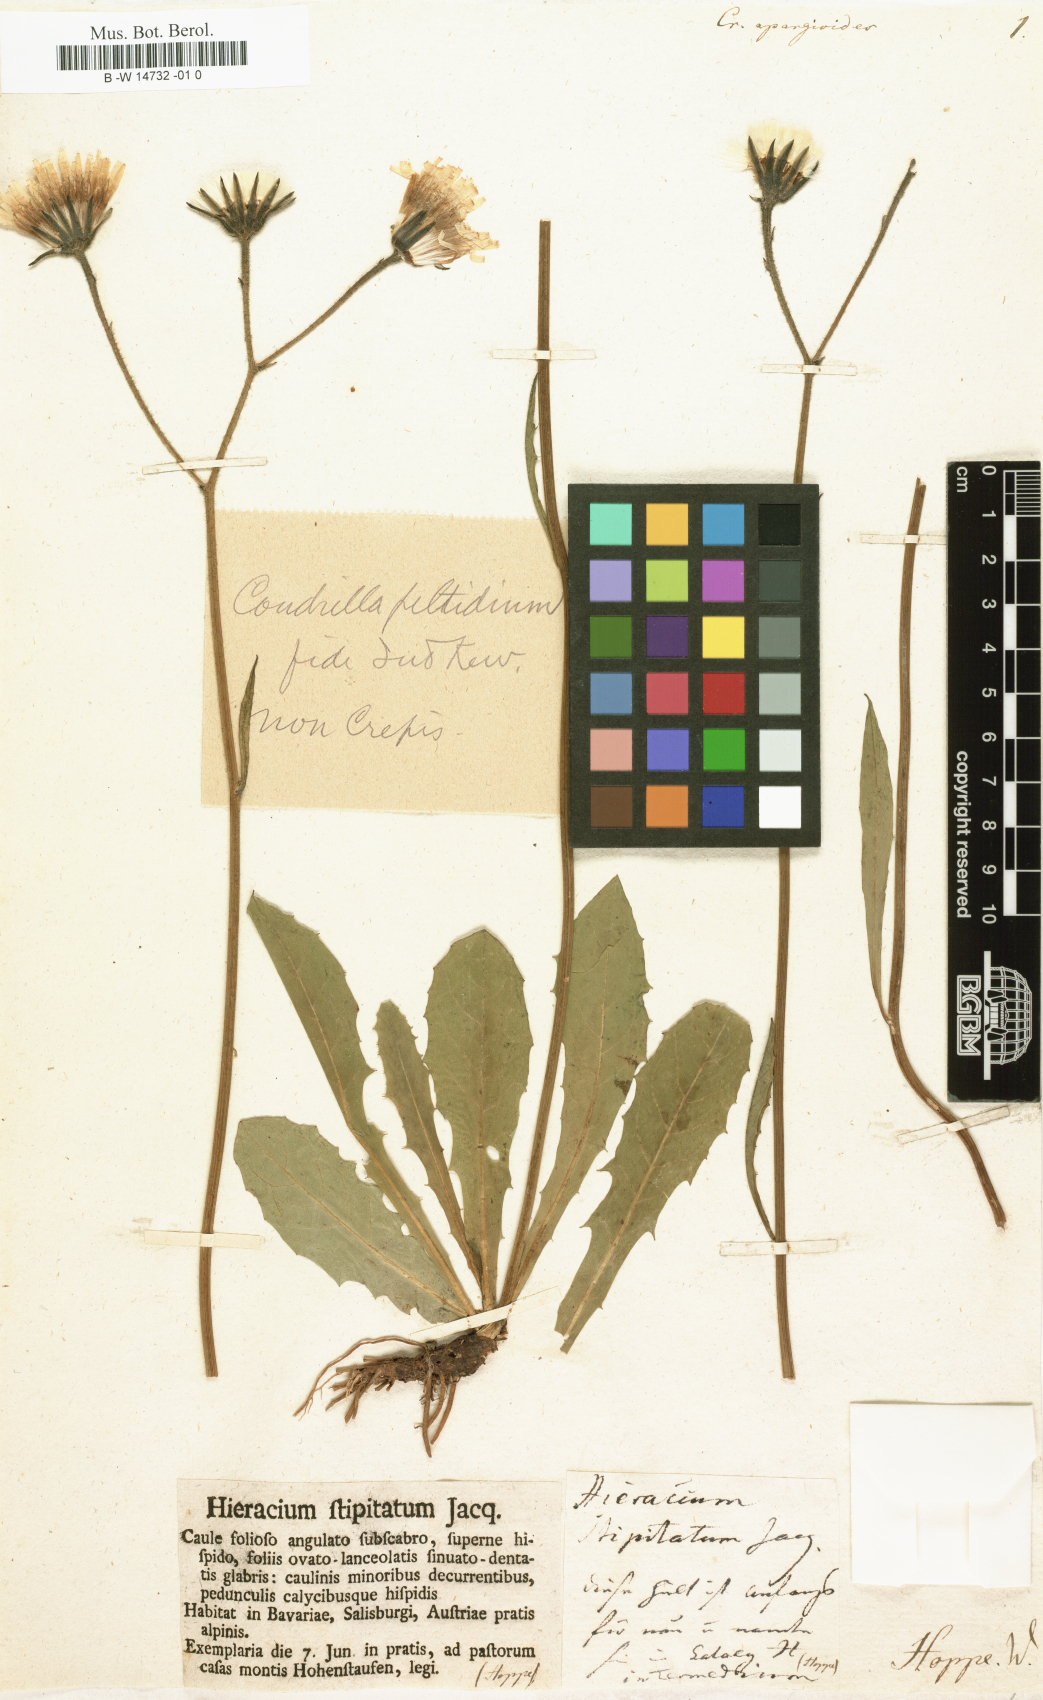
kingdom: Plantae
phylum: Tracheophyta
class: Magnoliopsida
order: Asterales
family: Asteraceae
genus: Willemetia
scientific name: Willemetia stipitata
